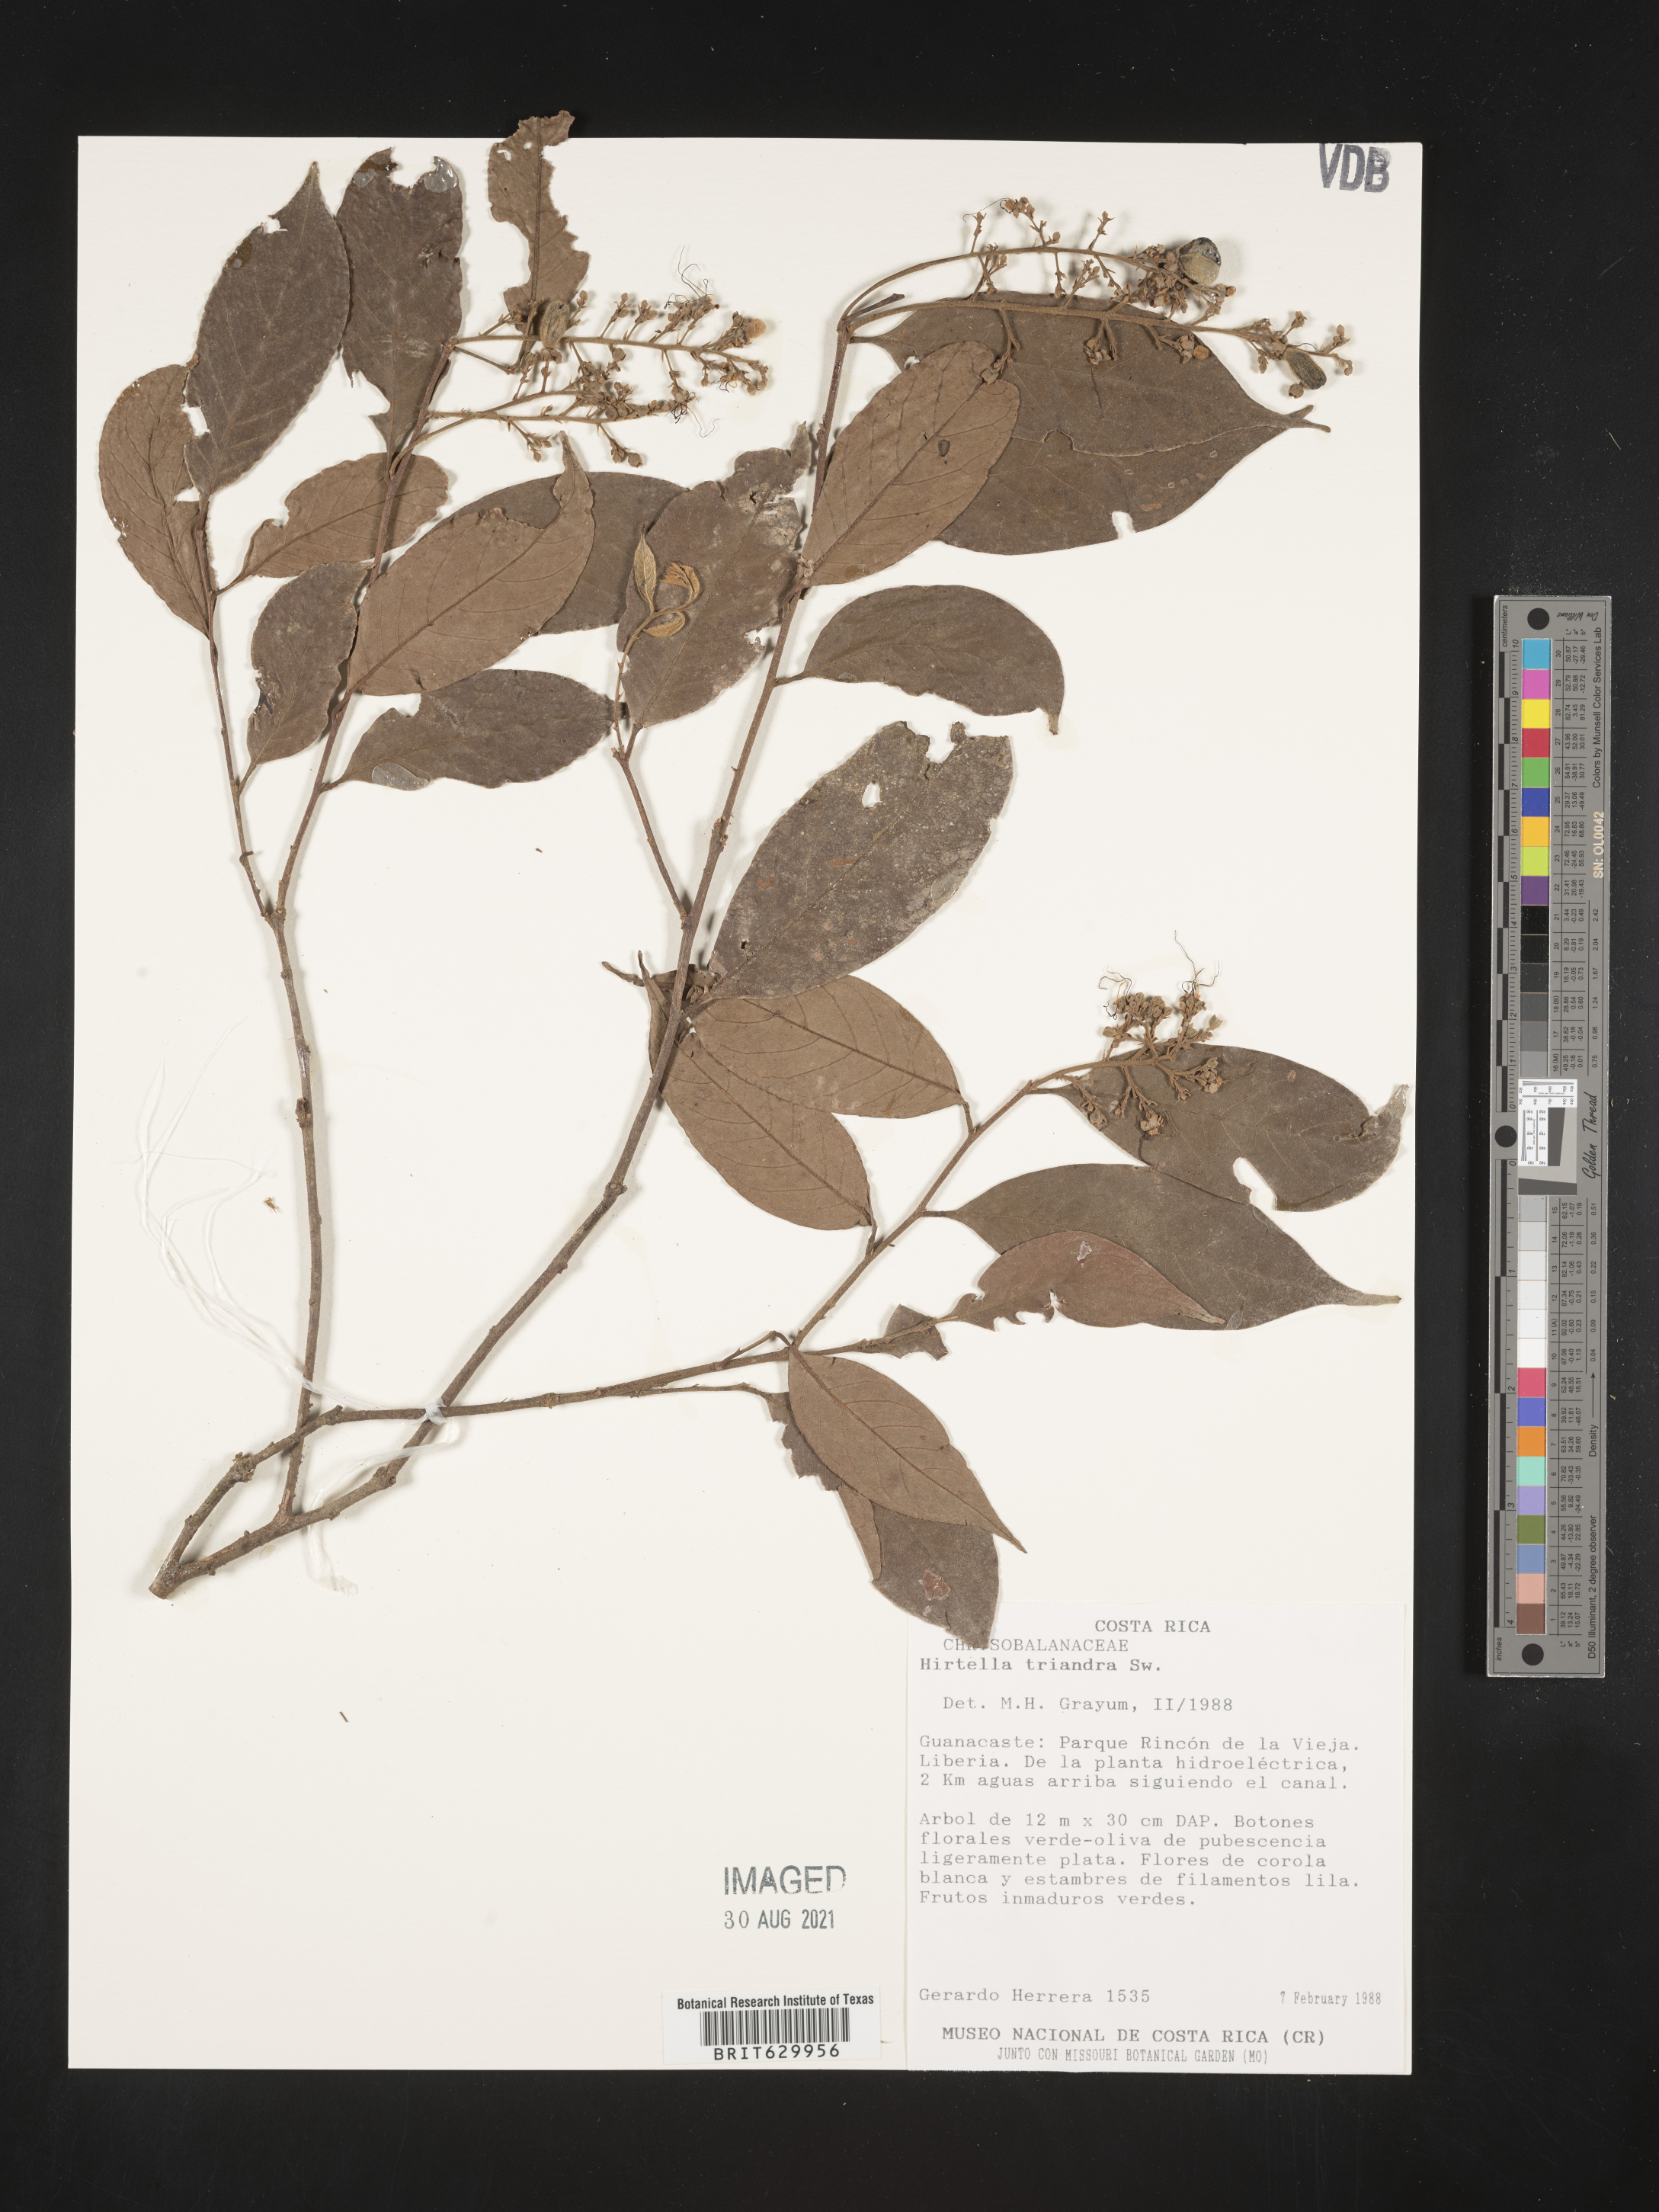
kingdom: Plantae
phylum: Tracheophyta
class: Magnoliopsida
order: Malpighiales
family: Chrysobalanaceae
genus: Hirtella
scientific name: Hirtella triandra
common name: Hairy plum
